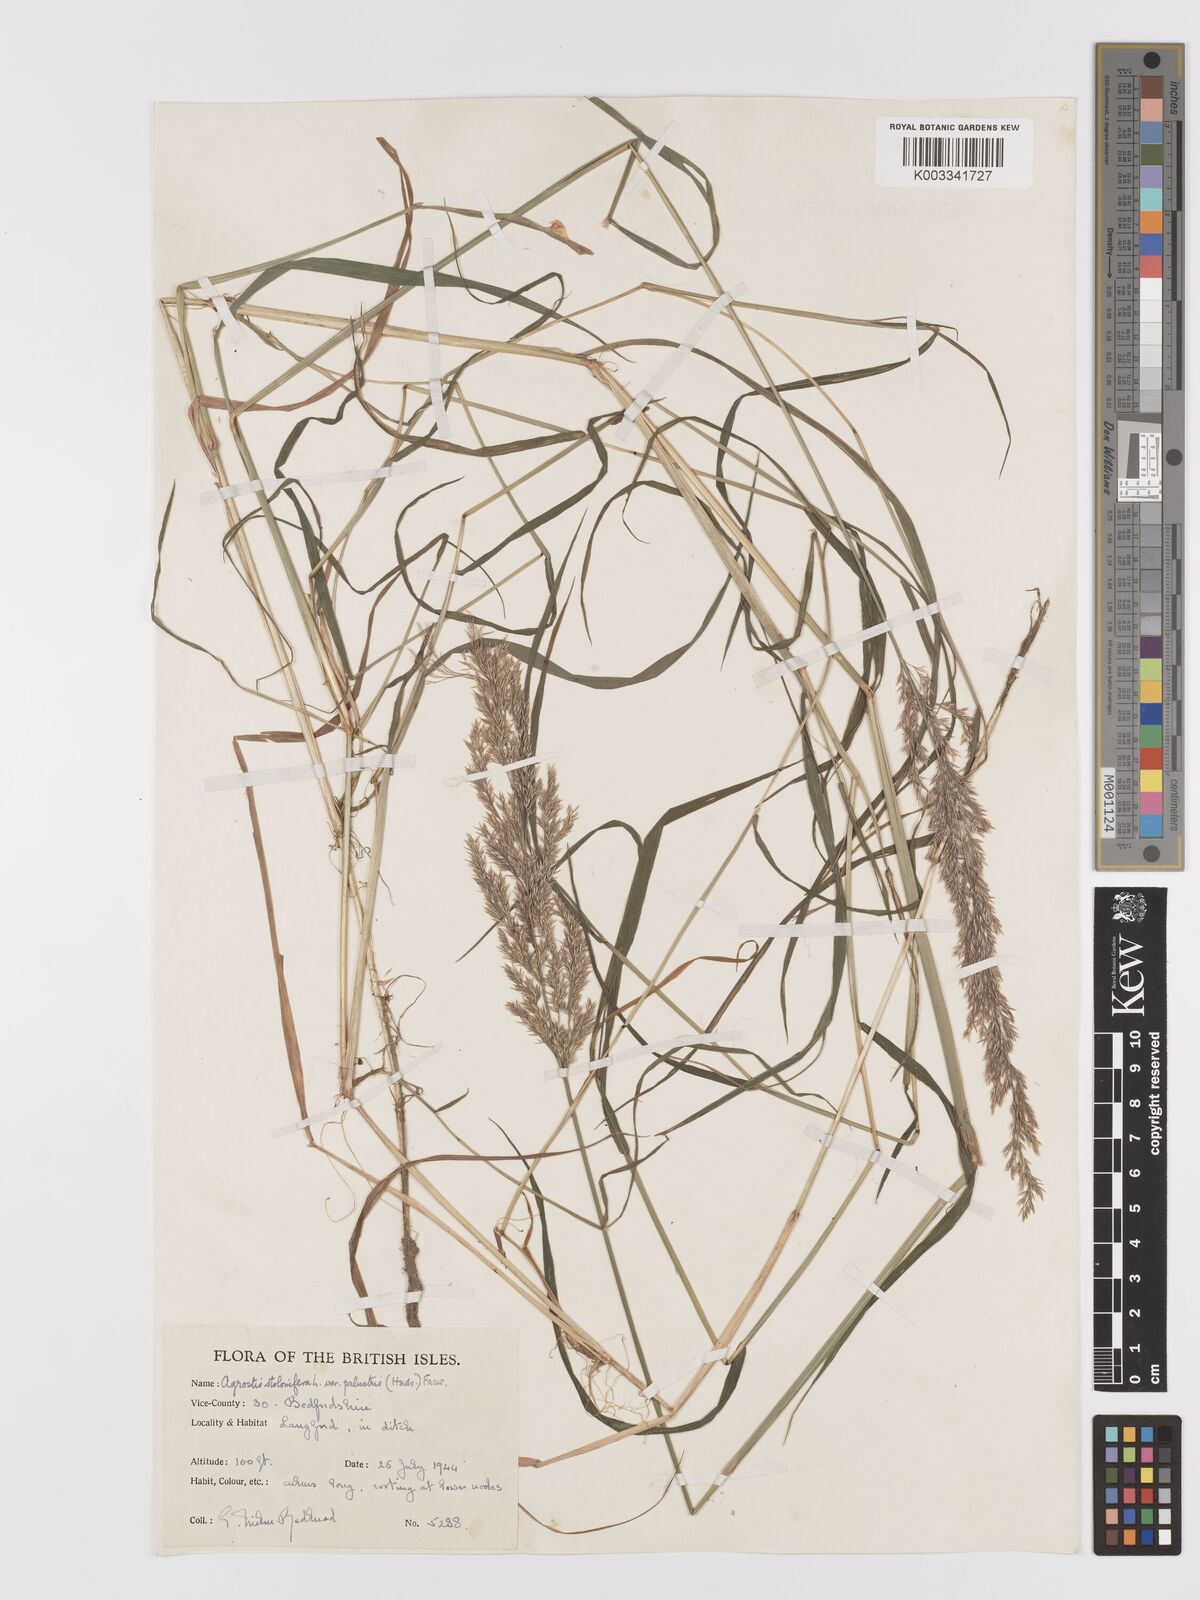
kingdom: Plantae
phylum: Tracheophyta
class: Liliopsida
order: Poales
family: Poaceae
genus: Agrostis
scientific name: Agrostis stolonifera
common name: Creeping bentgrass
